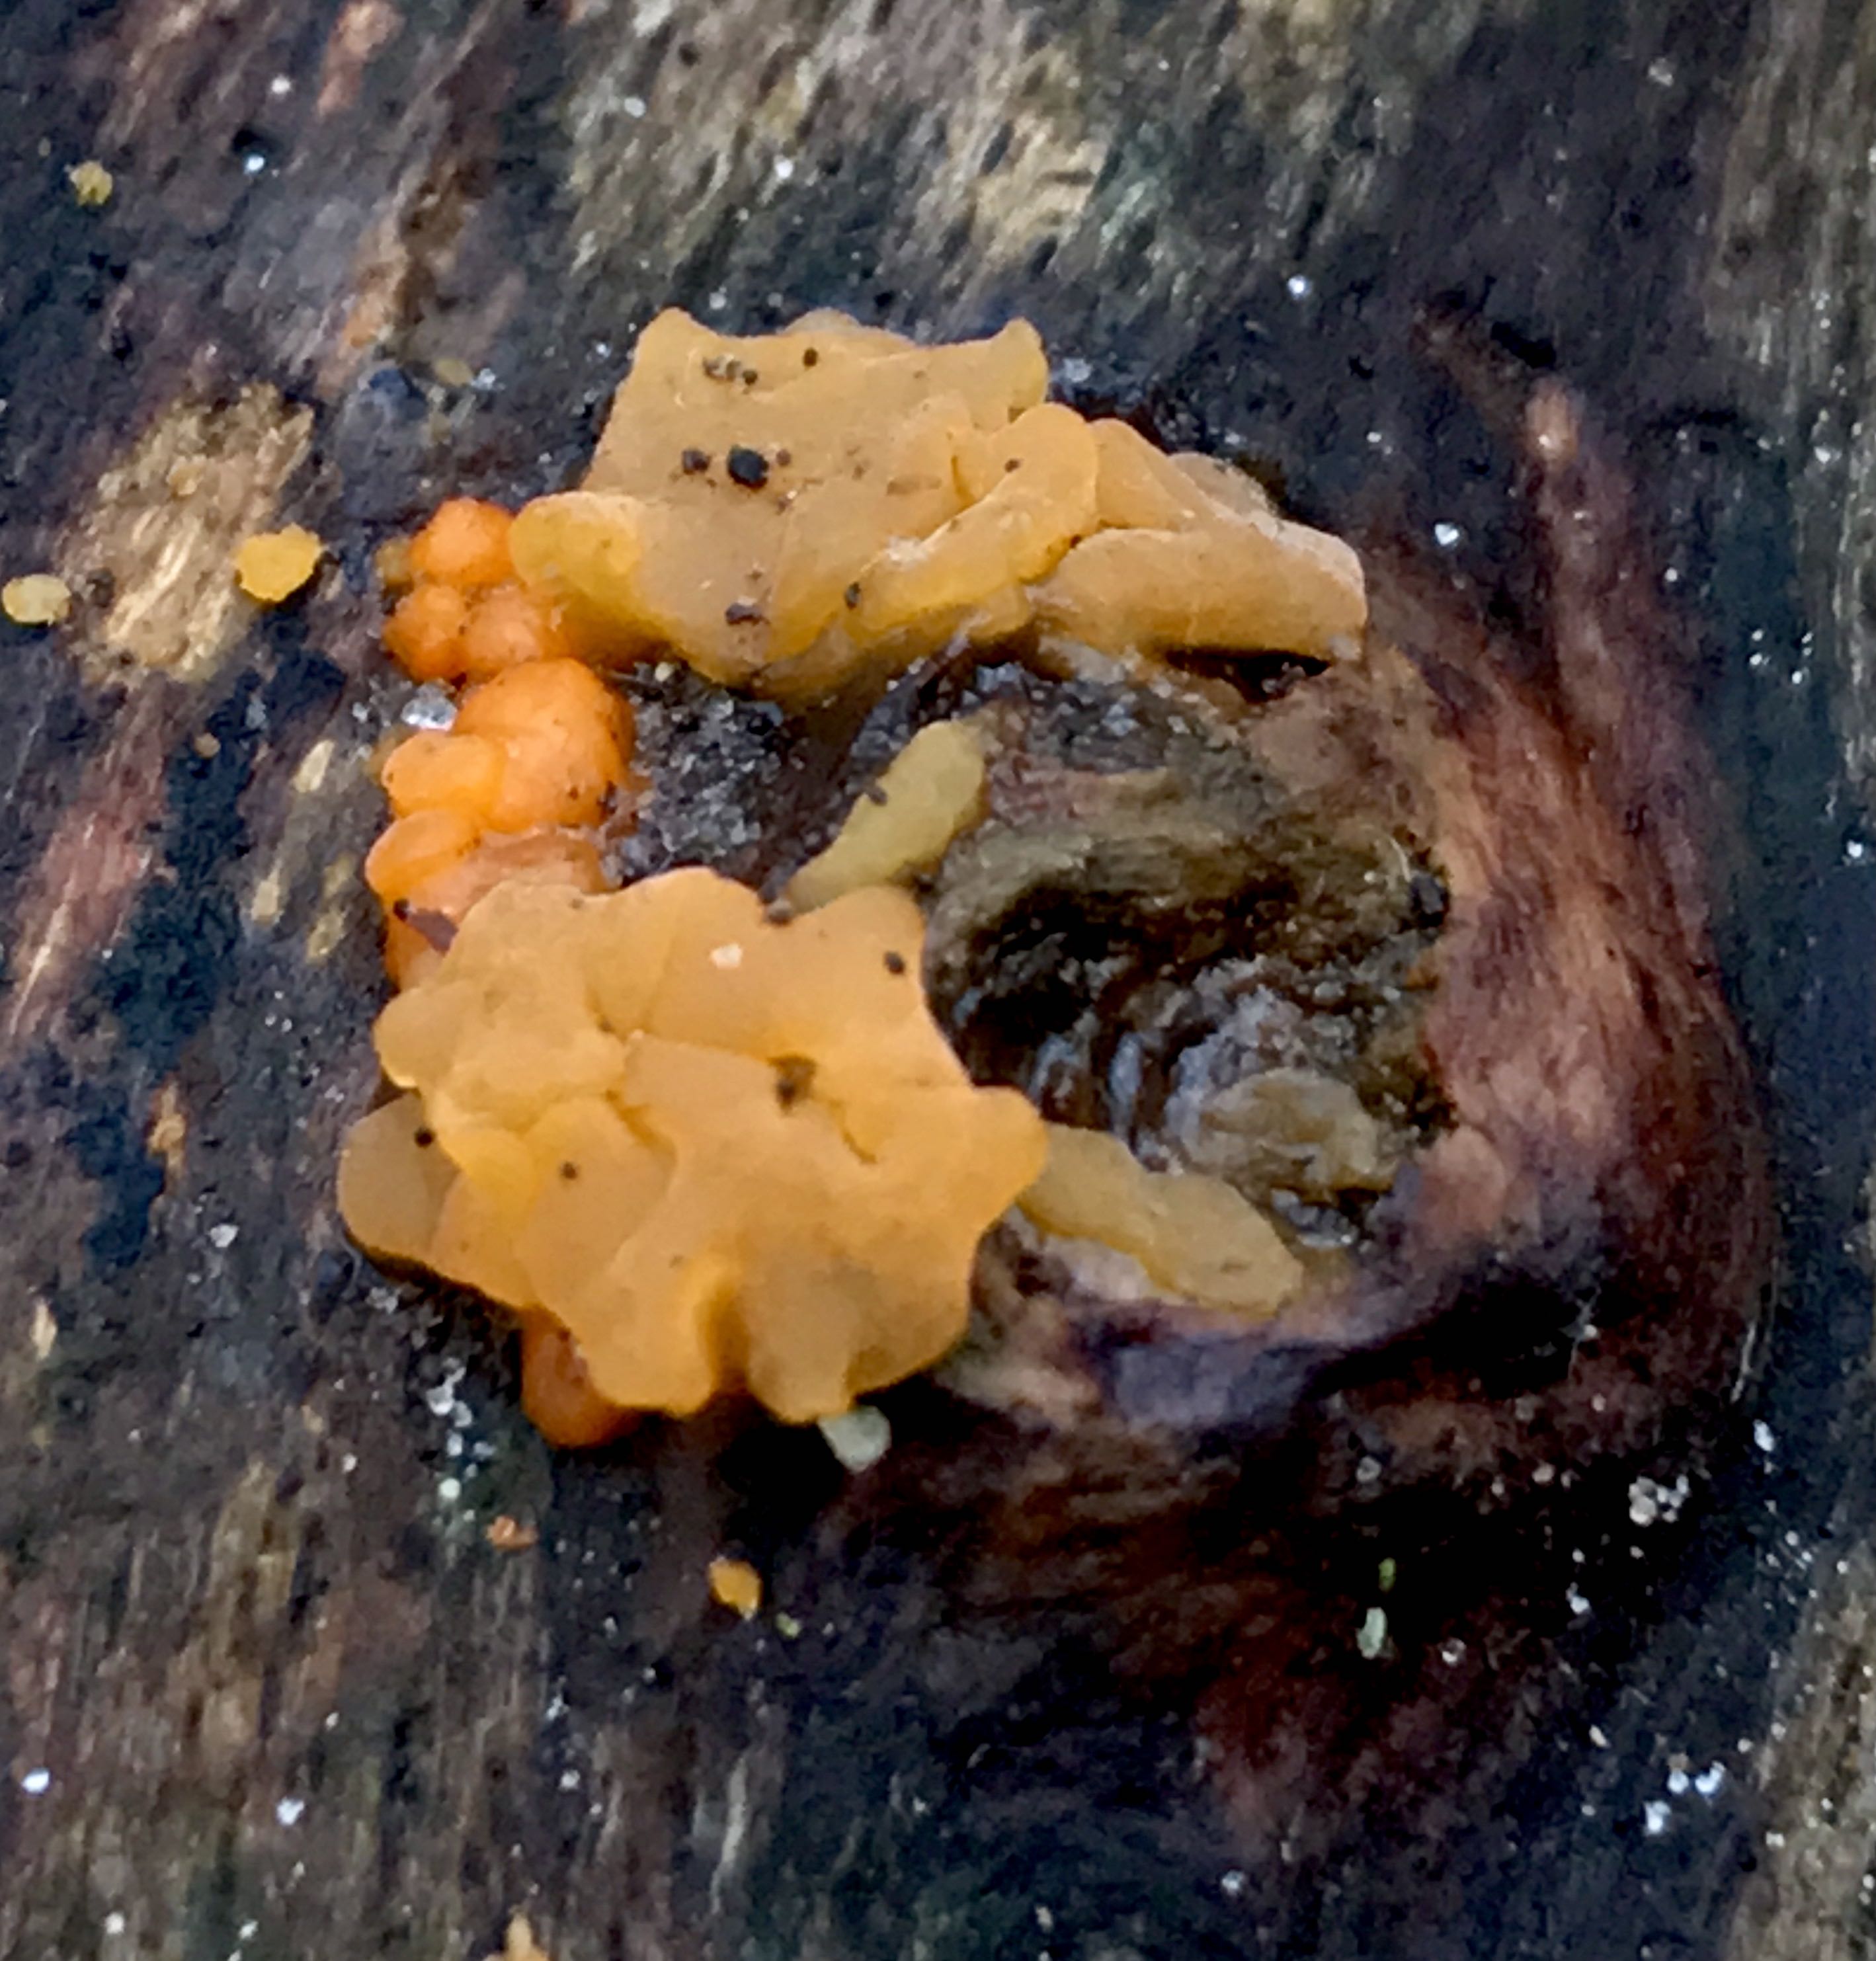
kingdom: Fungi
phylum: Basidiomycota
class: Dacrymycetes
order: Dacrymycetales
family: Dacrymycetaceae
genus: Dacrymyces
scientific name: Dacrymyces stillatus
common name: almindelig tåresvamp
